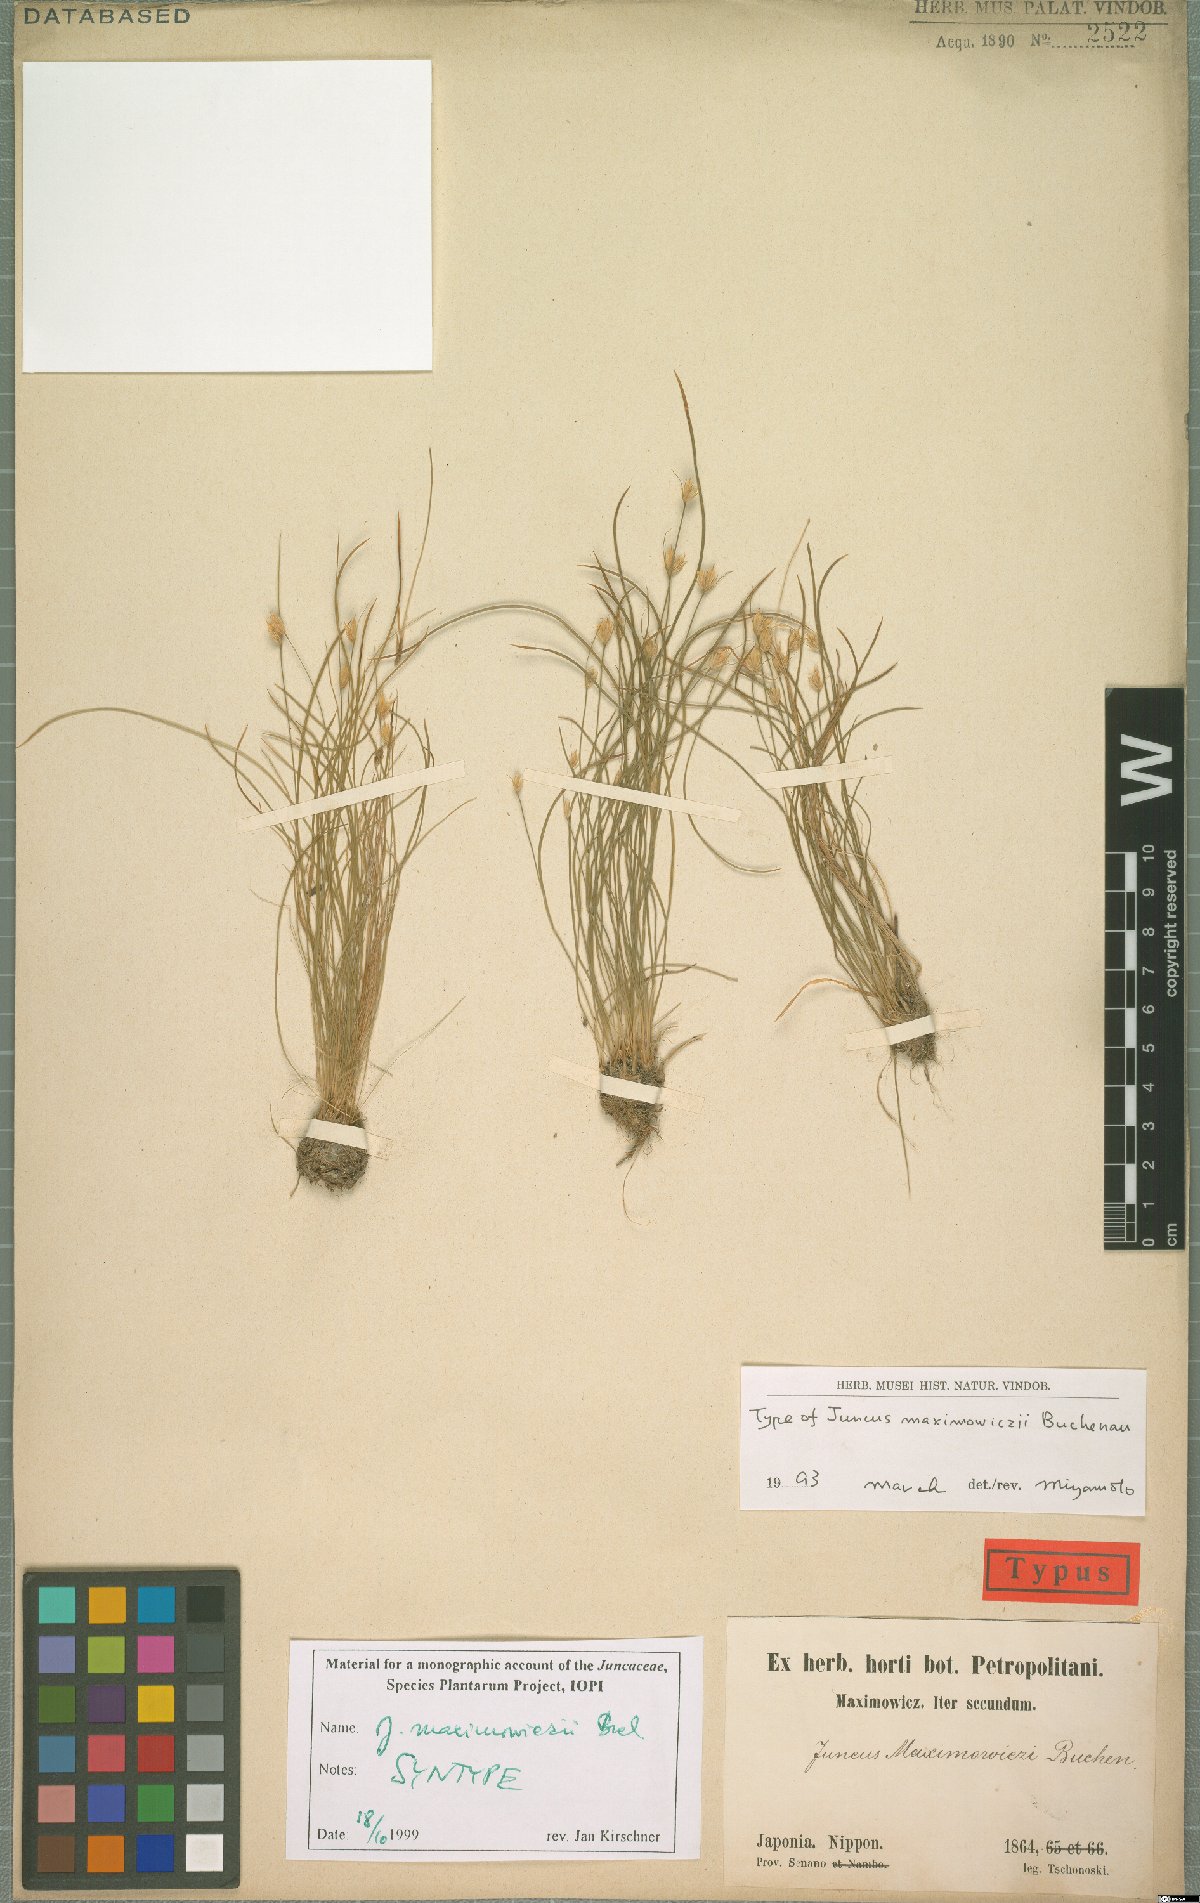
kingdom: Plantae
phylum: Tracheophyta
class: Liliopsida
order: Poales
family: Juncaceae
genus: Juncus
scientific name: Juncus maximowiczii
